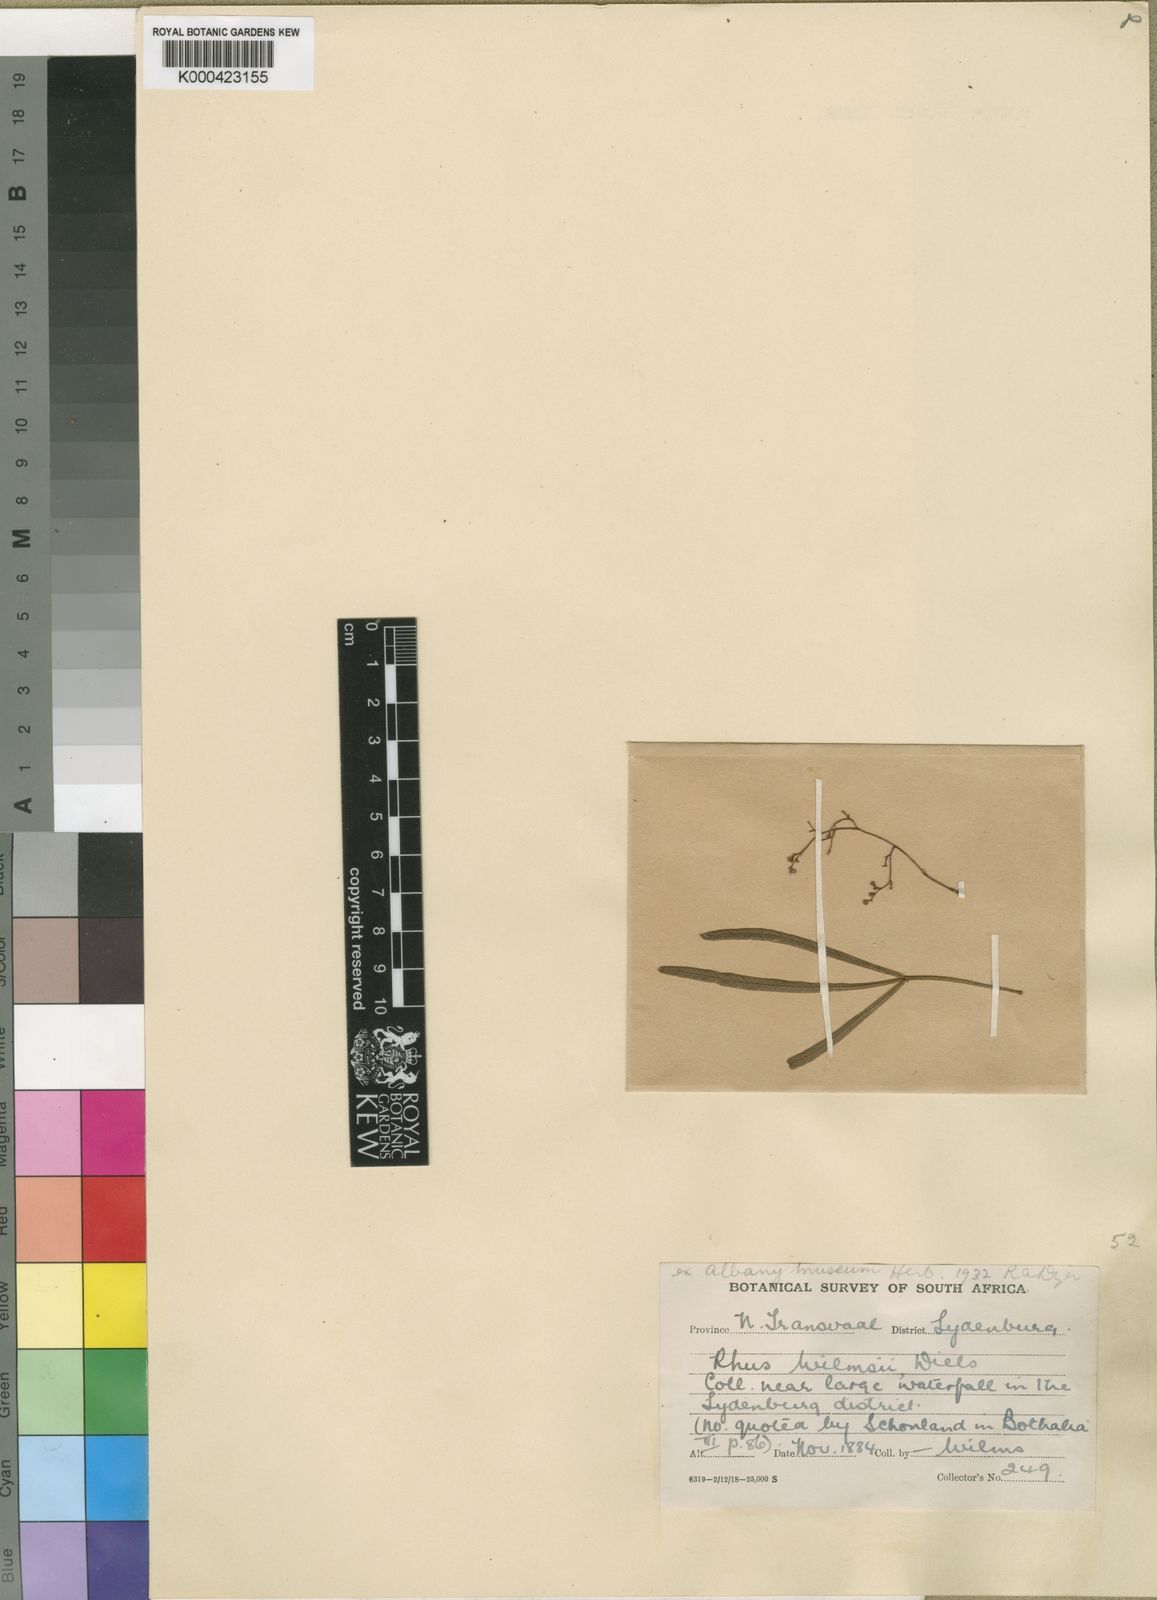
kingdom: Plantae
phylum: Tracheophyta
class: Magnoliopsida
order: Sapindales
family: Anacardiaceae
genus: Searsia
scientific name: Searsia wilmsii
